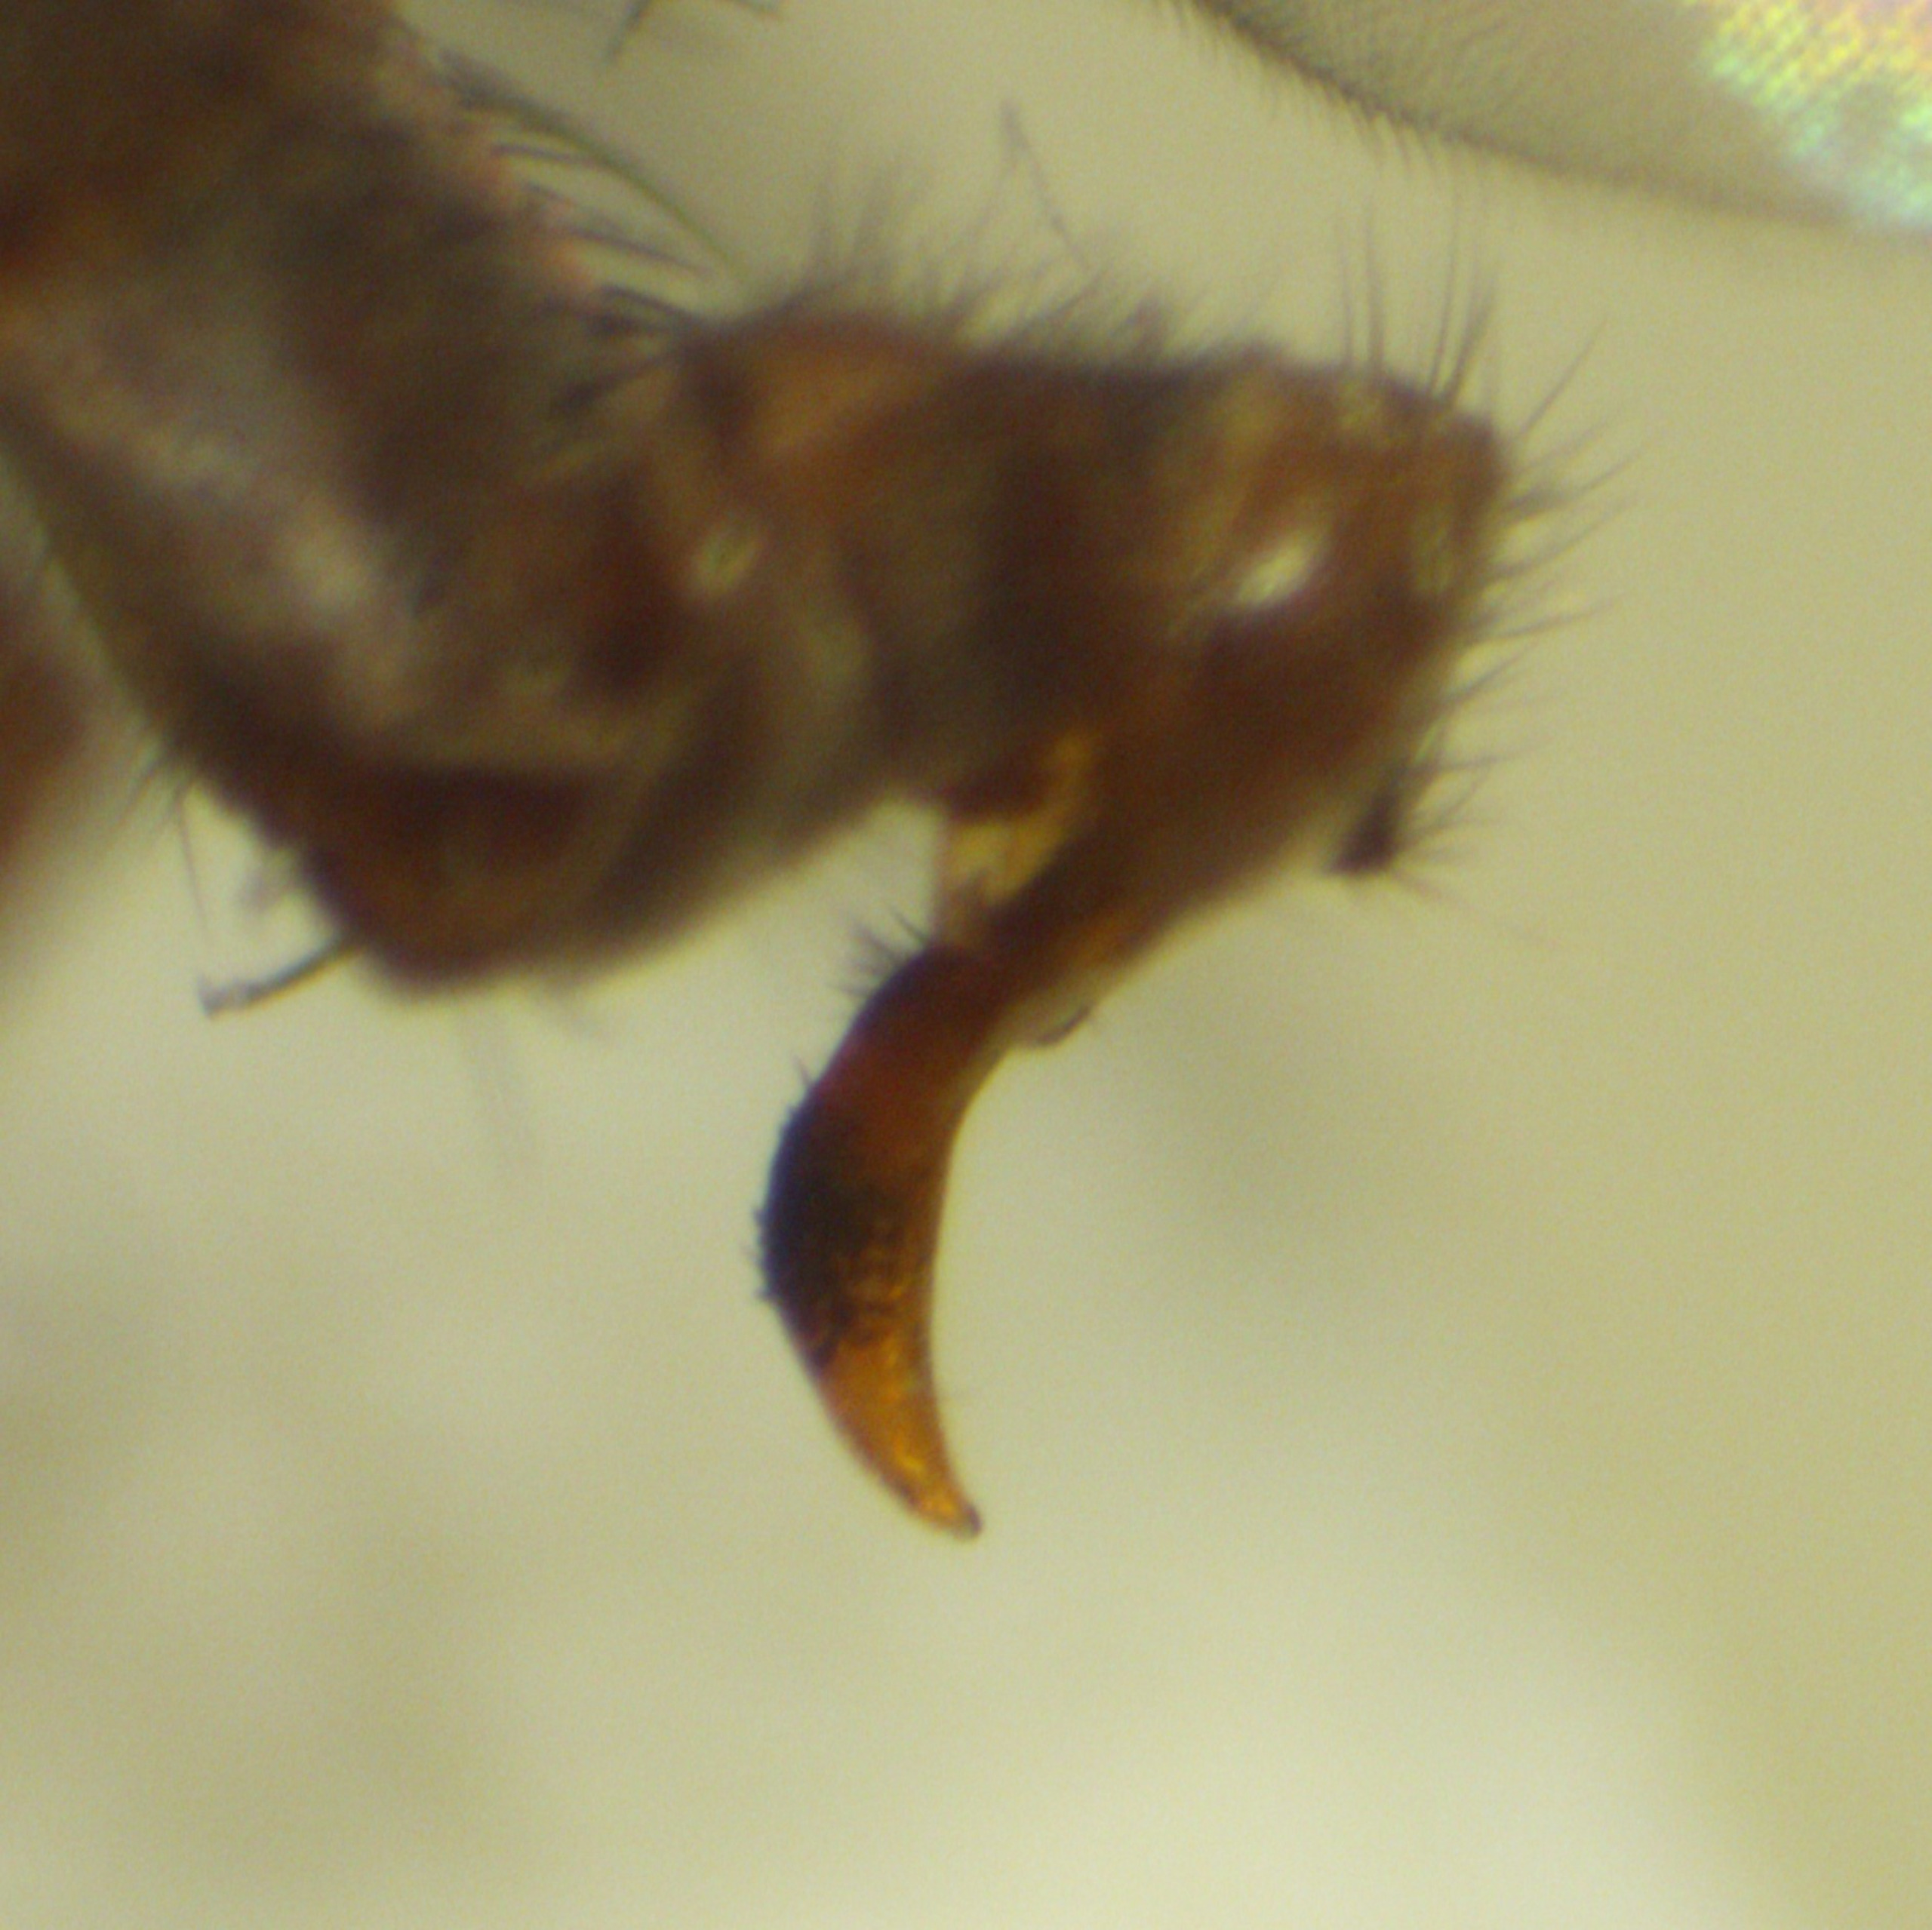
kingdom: Animalia
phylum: Arthropoda
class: Insecta
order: Diptera
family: Heleomyzidae
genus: Heleomyza
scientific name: Heleomyza serrata
